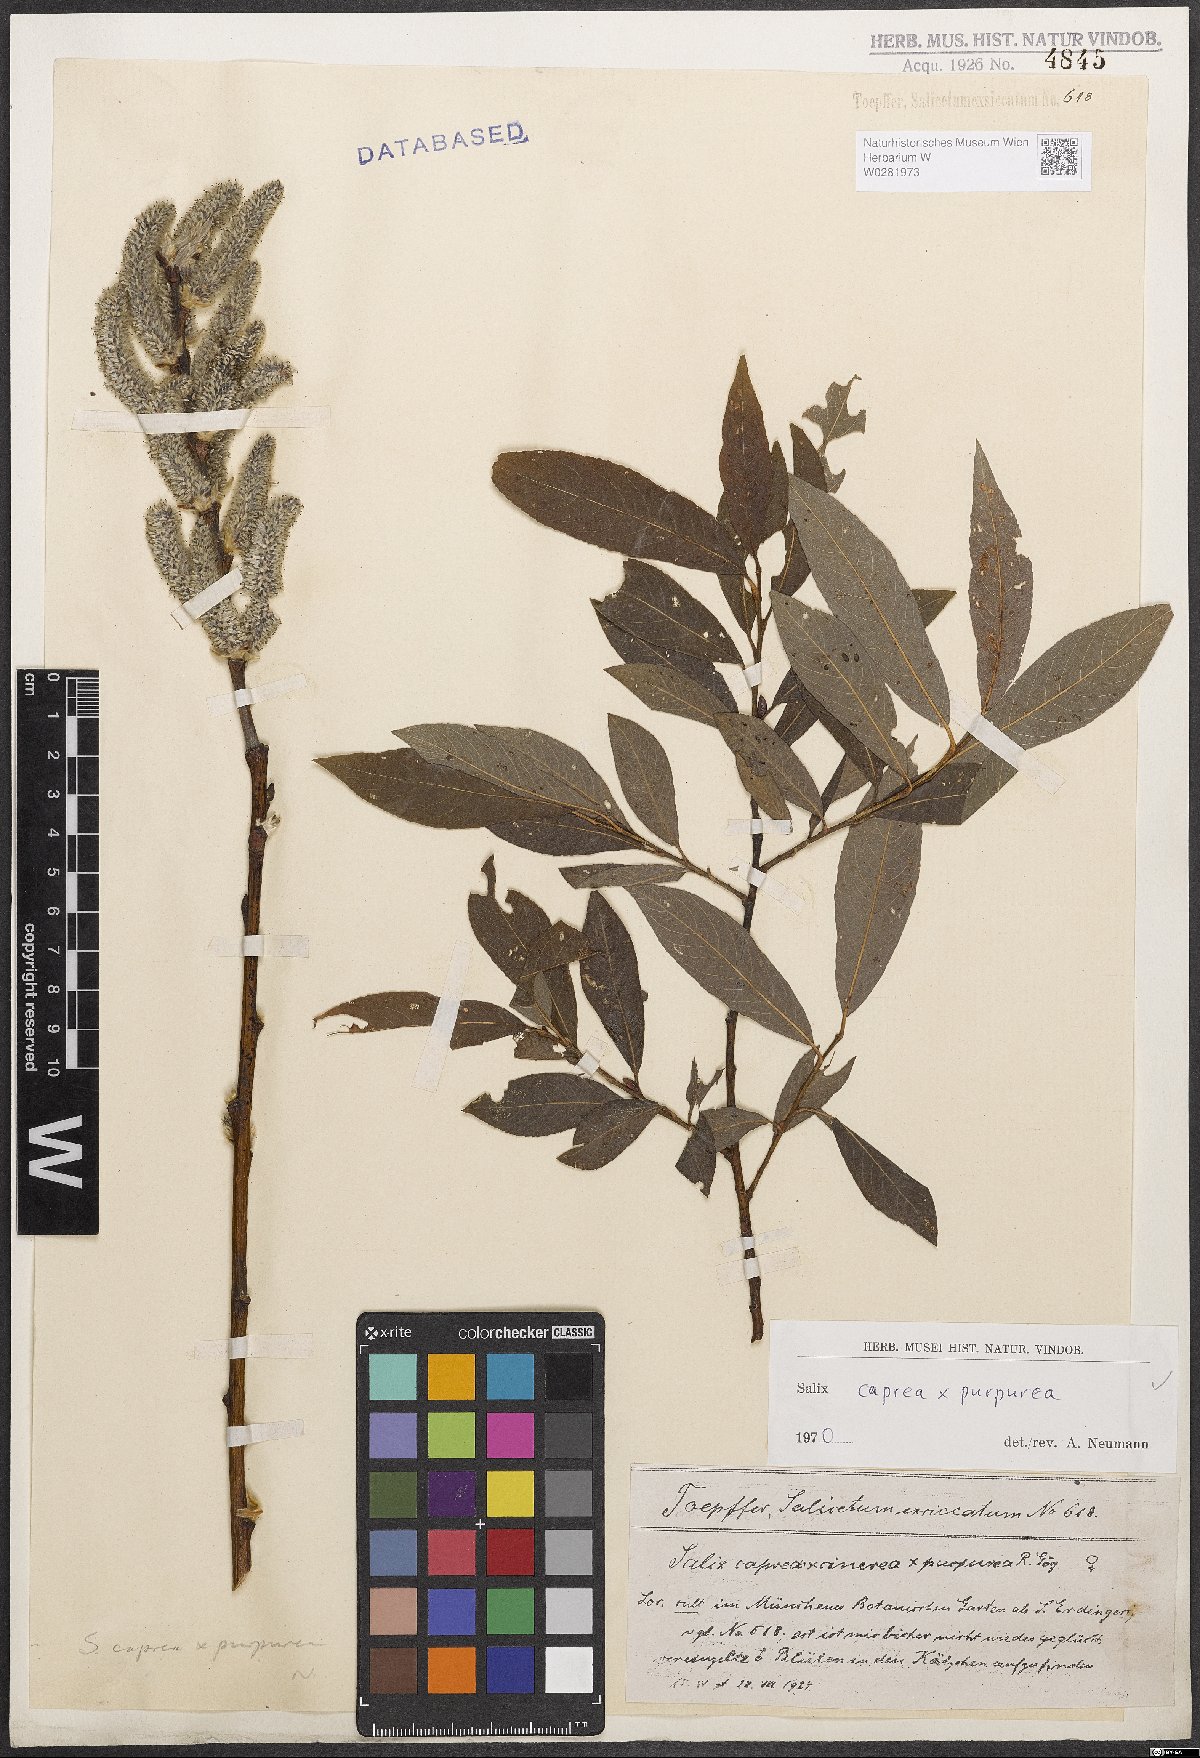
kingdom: Plantae
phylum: Tracheophyta
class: Magnoliopsida
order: Malpighiales
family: Salicaceae
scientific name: Salicaceae
